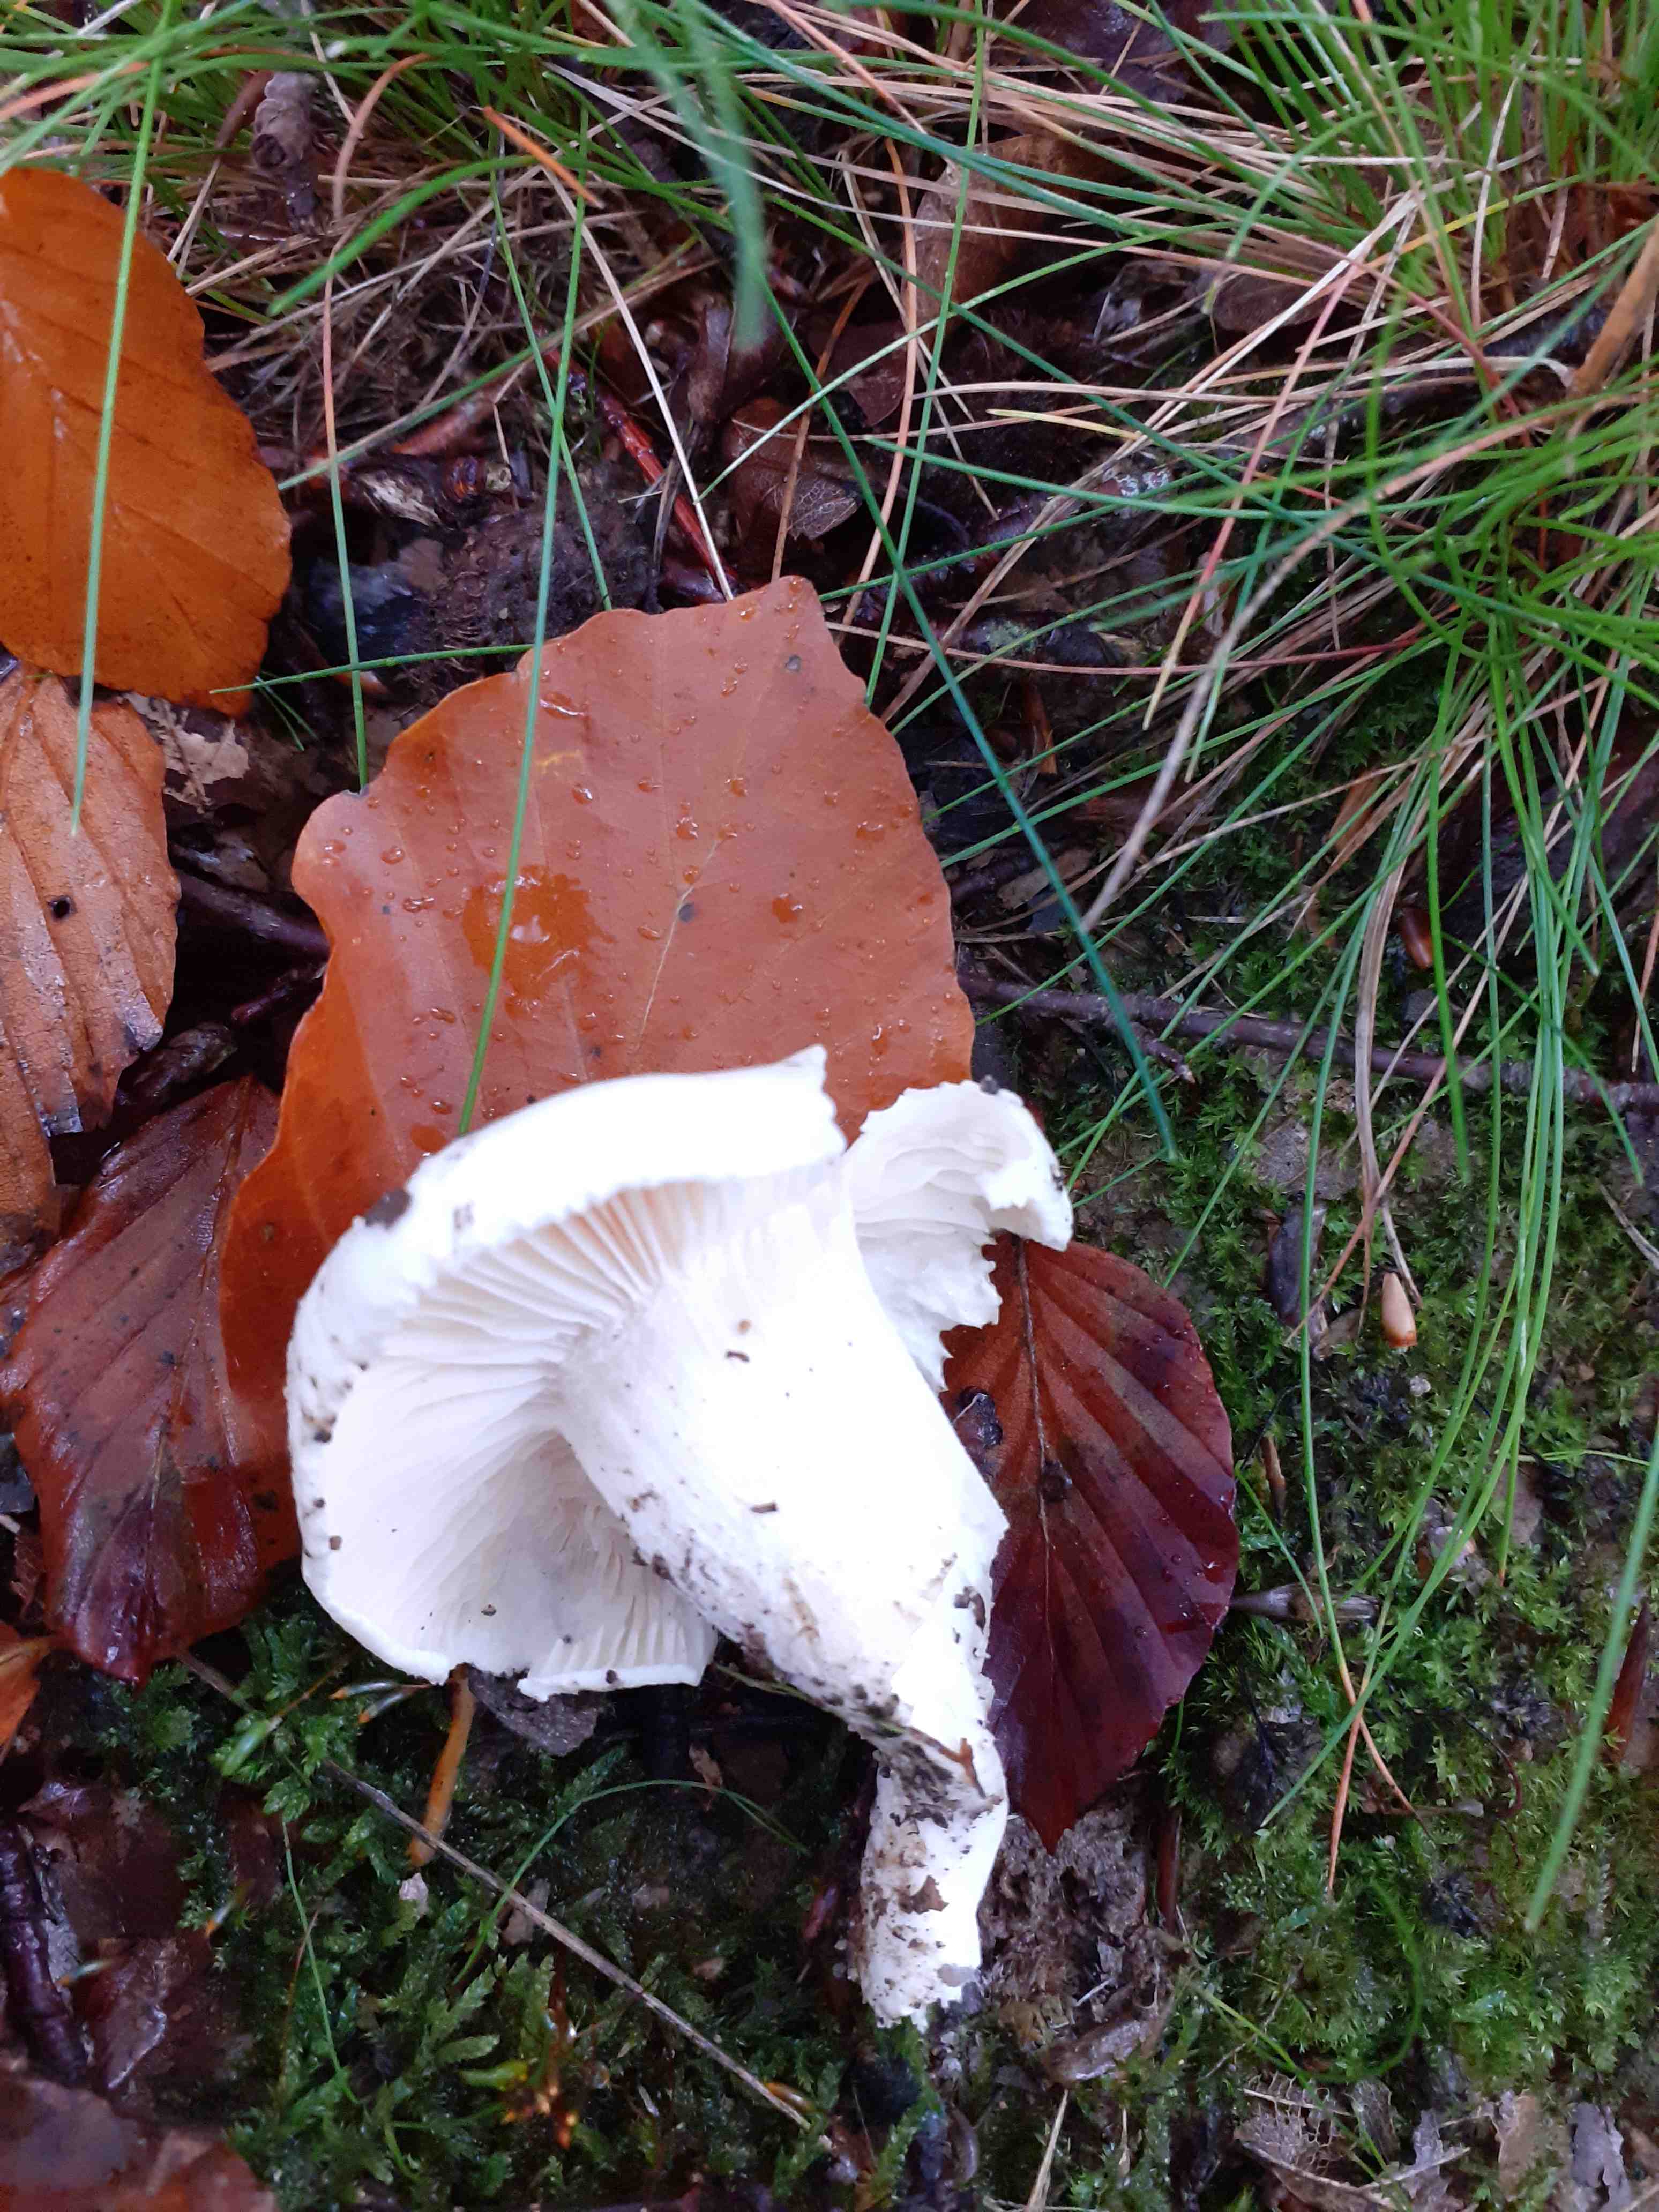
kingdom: Fungi
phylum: Basidiomycota
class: Agaricomycetes
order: Agaricales
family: Hygrophoraceae
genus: Hygrophorus
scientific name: Hygrophorus penarius
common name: spiselig sneglehat
